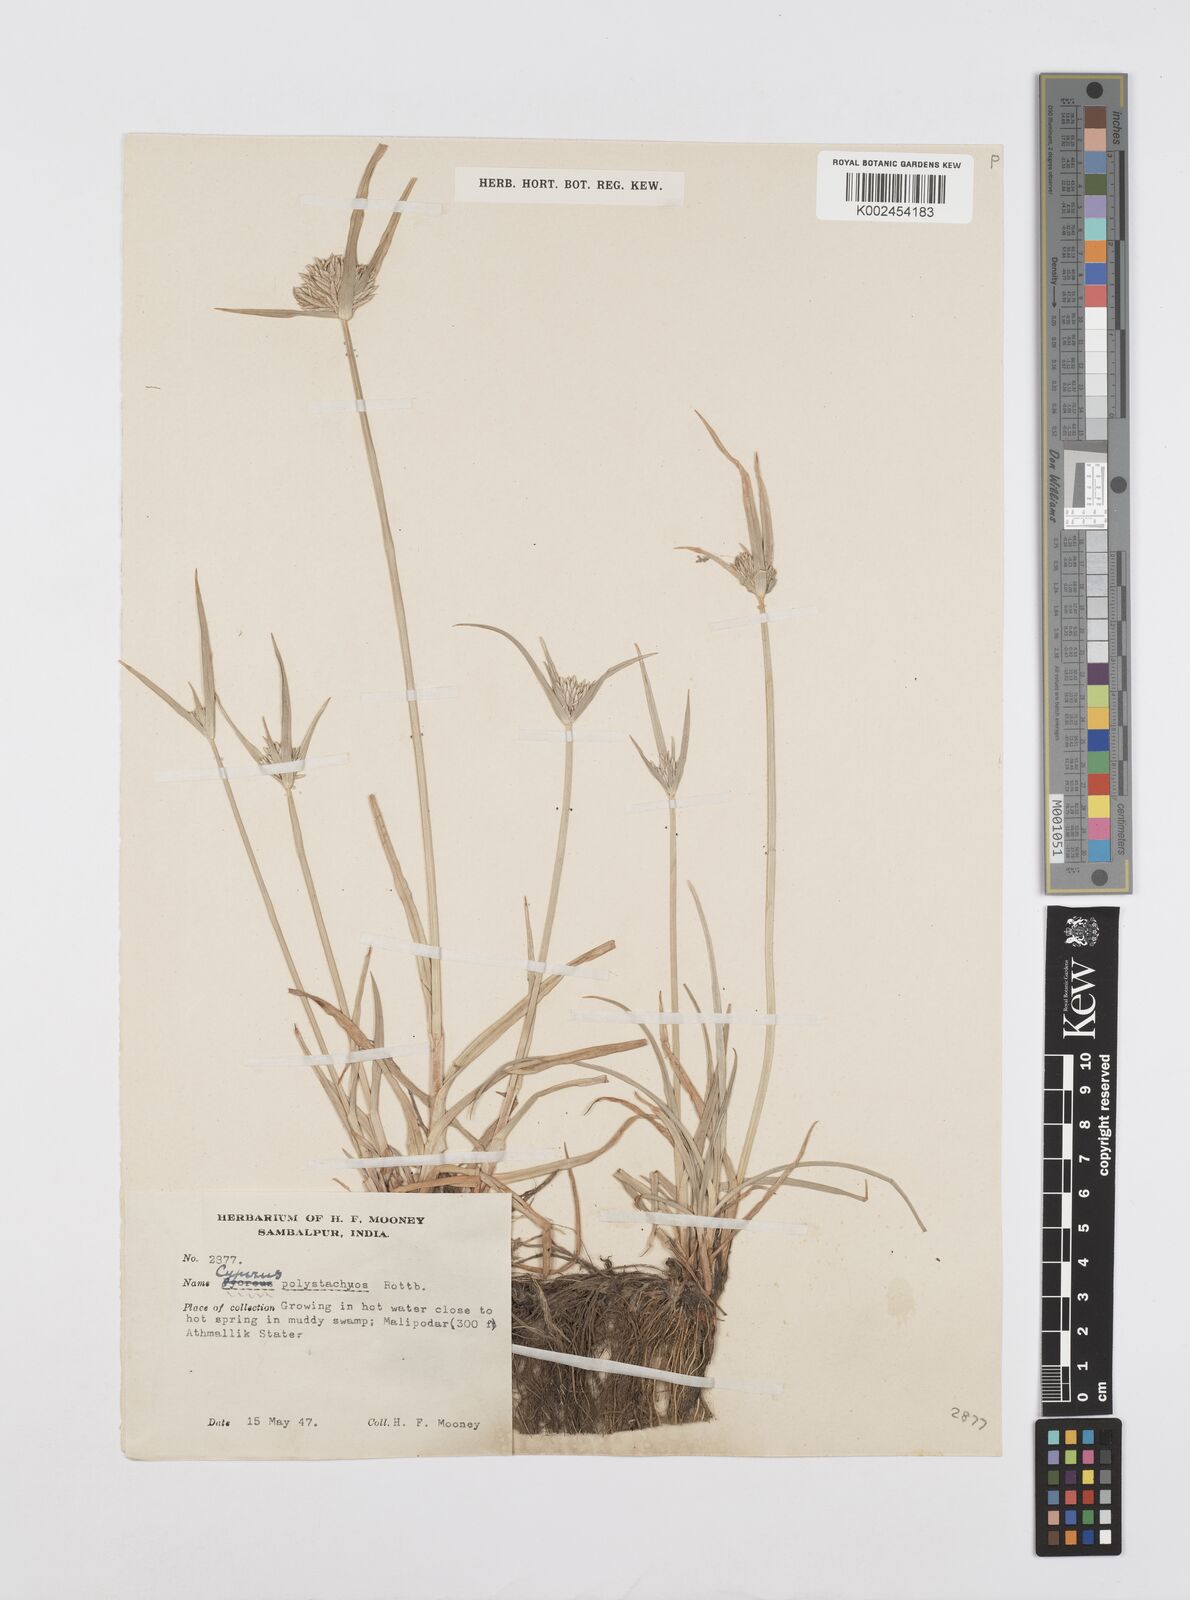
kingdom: Plantae
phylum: Tracheophyta
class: Liliopsida
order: Poales
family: Cyperaceae
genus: Cyperus
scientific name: Cyperus polystachyos
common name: Bunchy flat sedge
